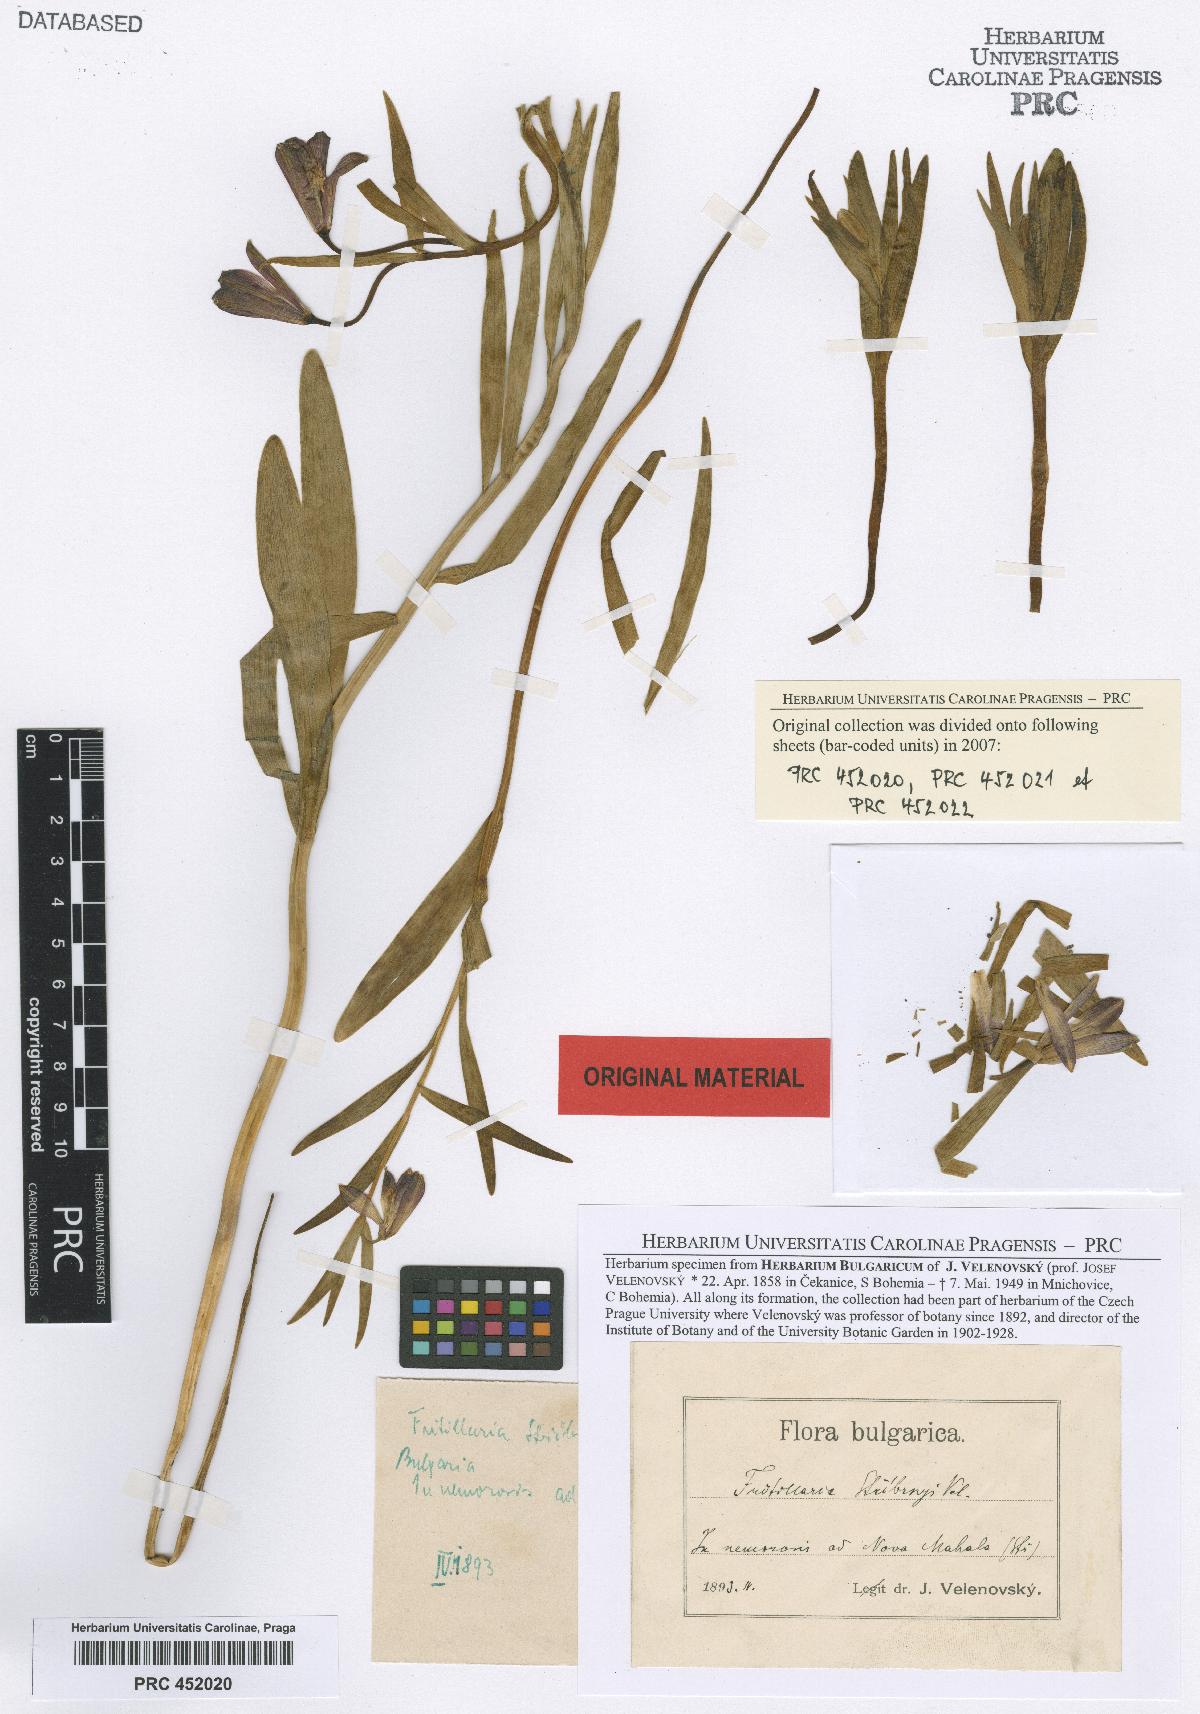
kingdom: Plantae
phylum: Tracheophyta
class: Liliopsida
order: Liliales
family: Liliaceae
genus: Fritillaria
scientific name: Fritillaria stribrnyi
